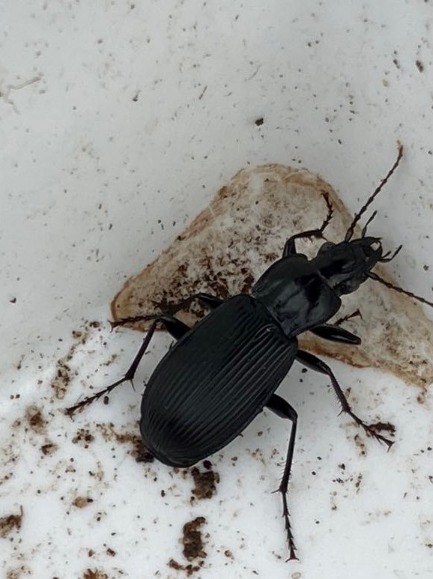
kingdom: Animalia
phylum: Arthropoda
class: Insecta
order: Coleoptera
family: Carabidae
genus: Pterostichus
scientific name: Pterostichus niger
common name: Skovjordløber
